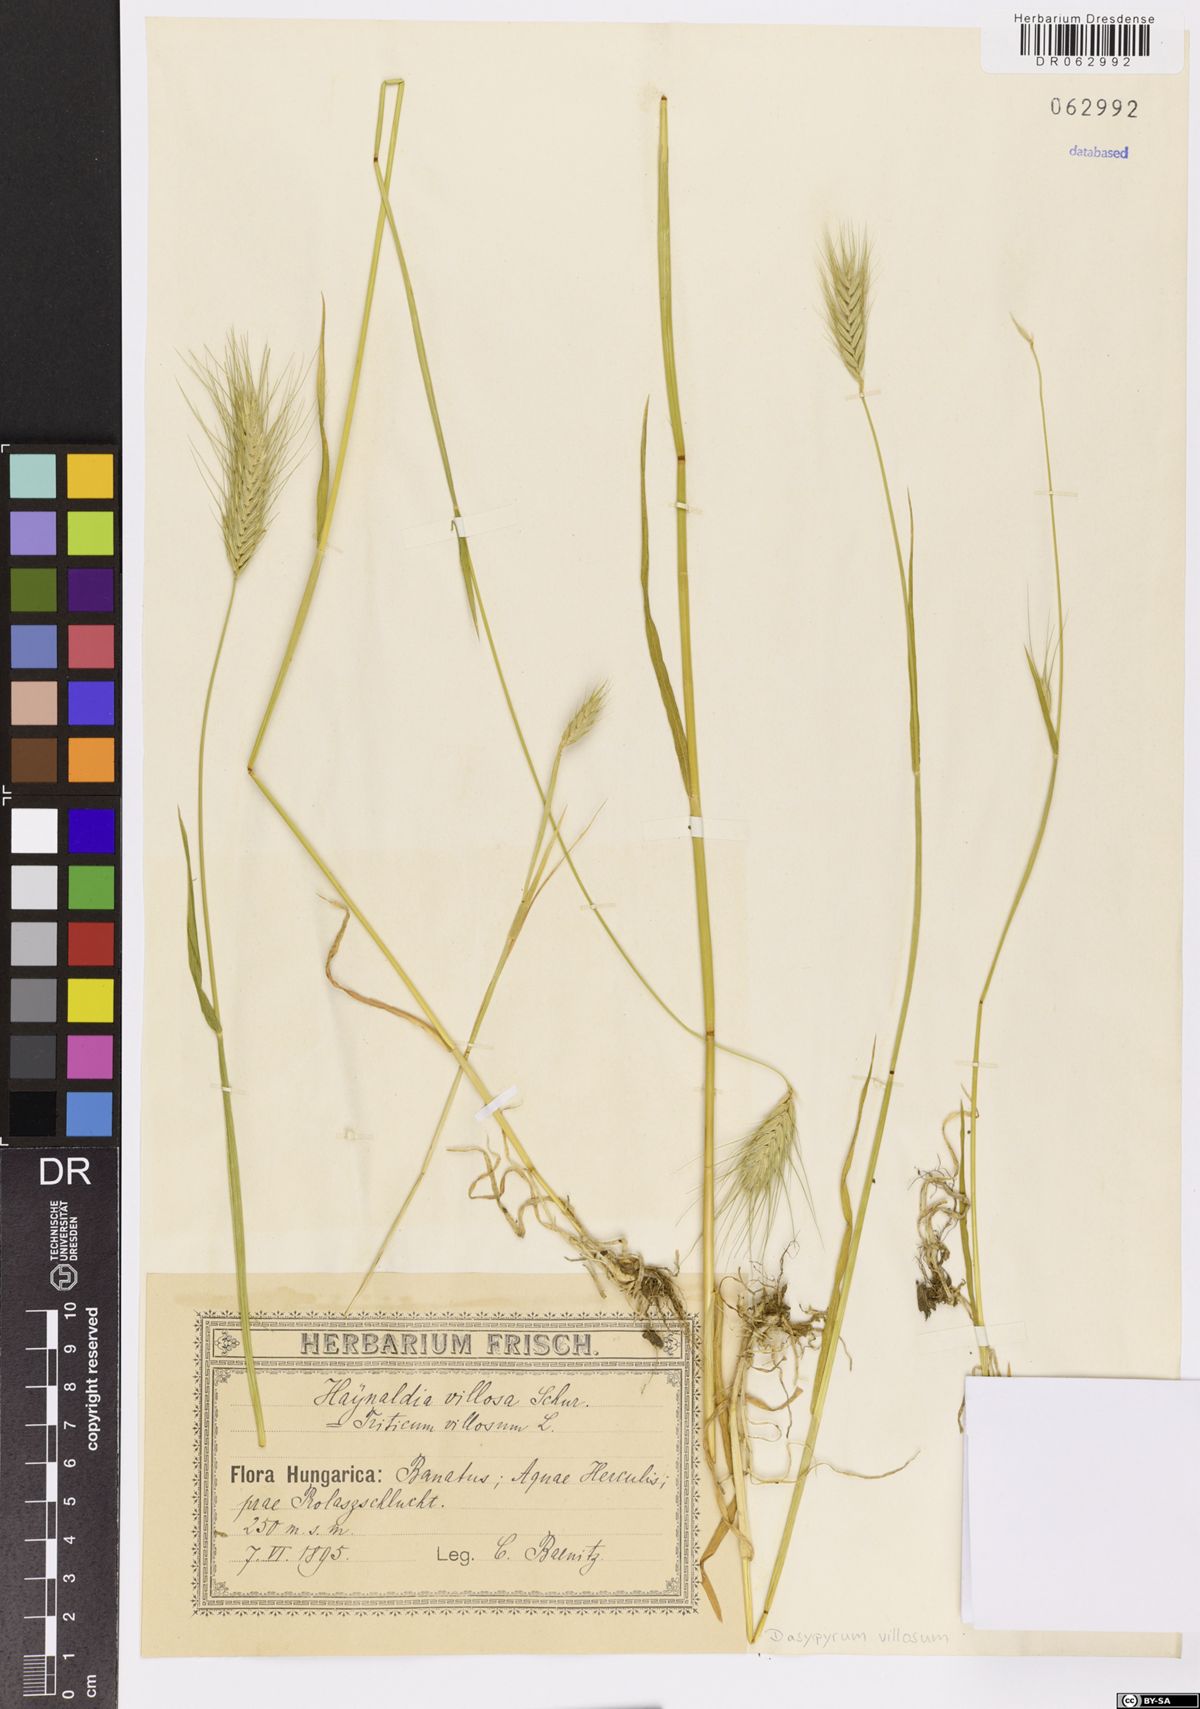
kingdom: Plantae
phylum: Tracheophyta
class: Liliopsida
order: Poales
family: Poaceae
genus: Dasypyrum
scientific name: Dasypyrum villosum
